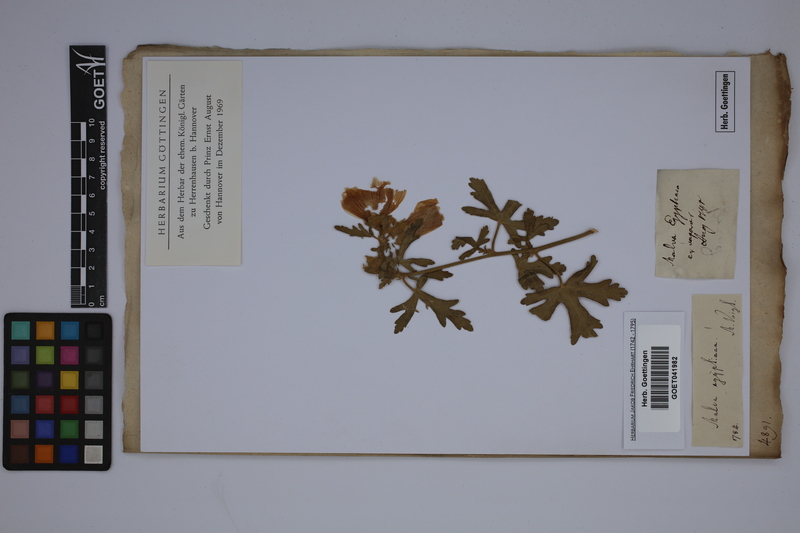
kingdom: Plantae
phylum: Tracheophyta
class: Magnoliopsida
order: Malvales
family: Malvaceae
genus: Malva
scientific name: Malva aegyptiaca
